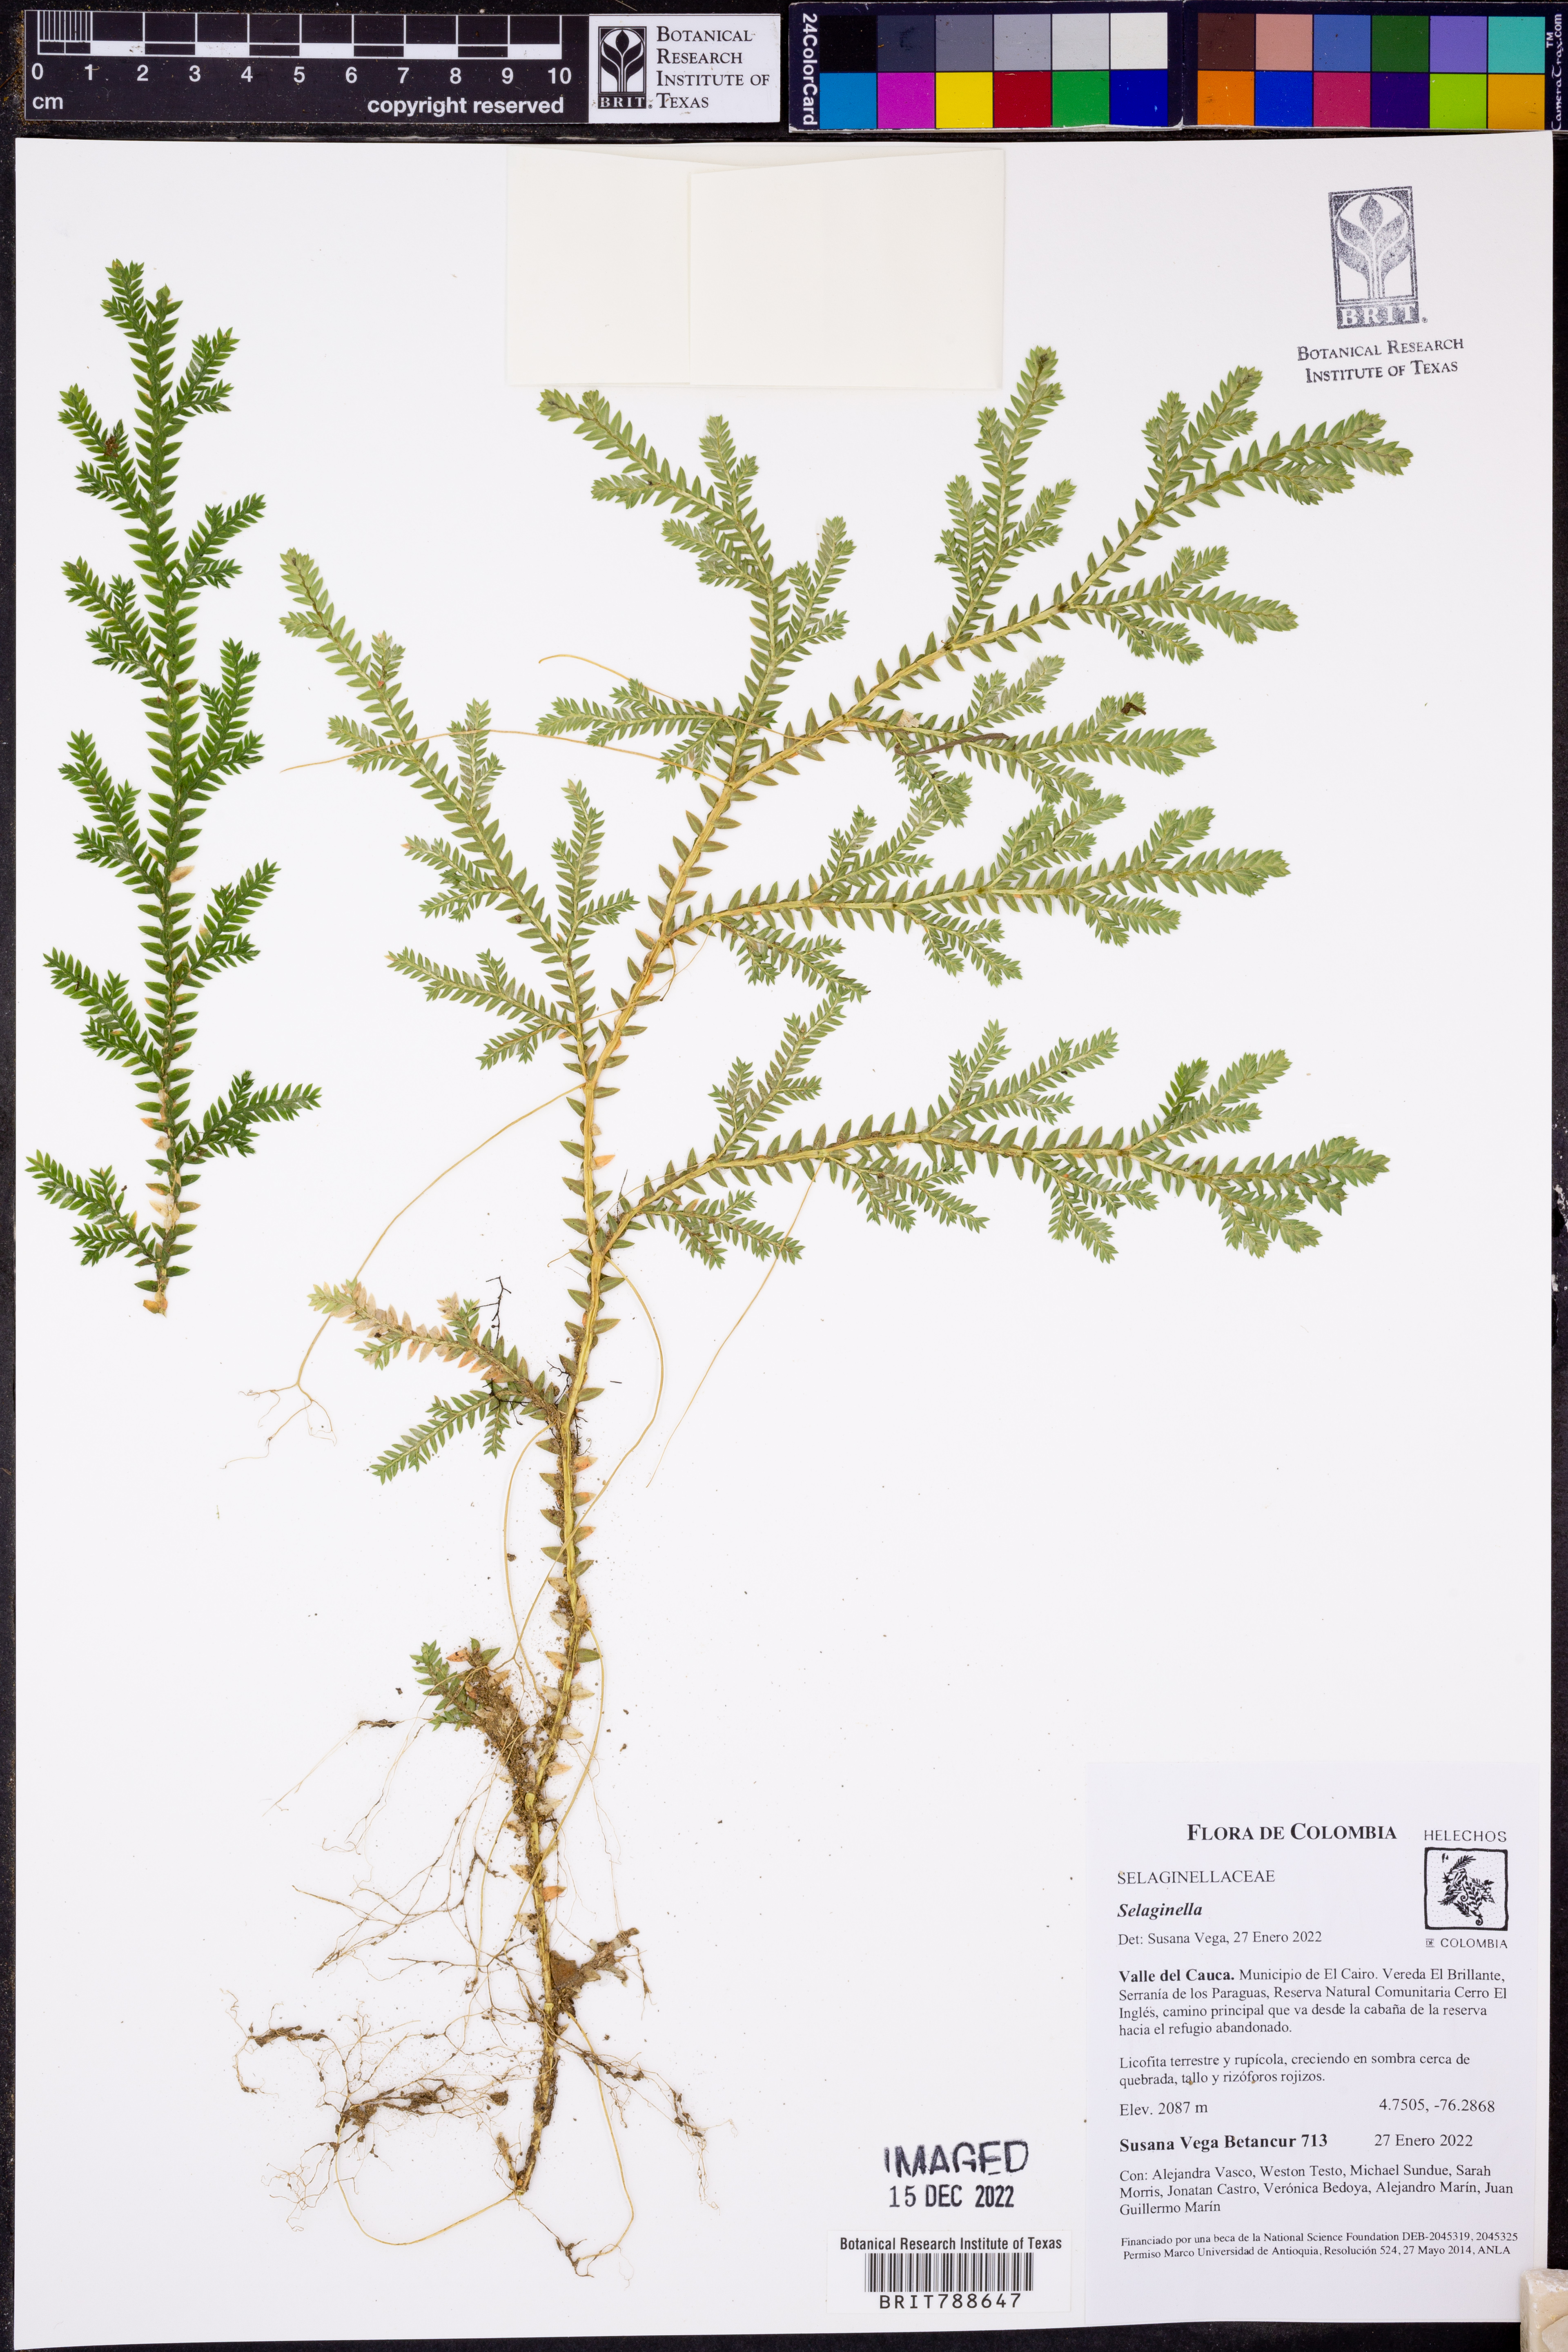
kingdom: Plantae
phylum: Tracheophyta
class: Lycopodiopsida
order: Selaginellales
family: Selaginellaceae
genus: Selaginella
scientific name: Selaginella
